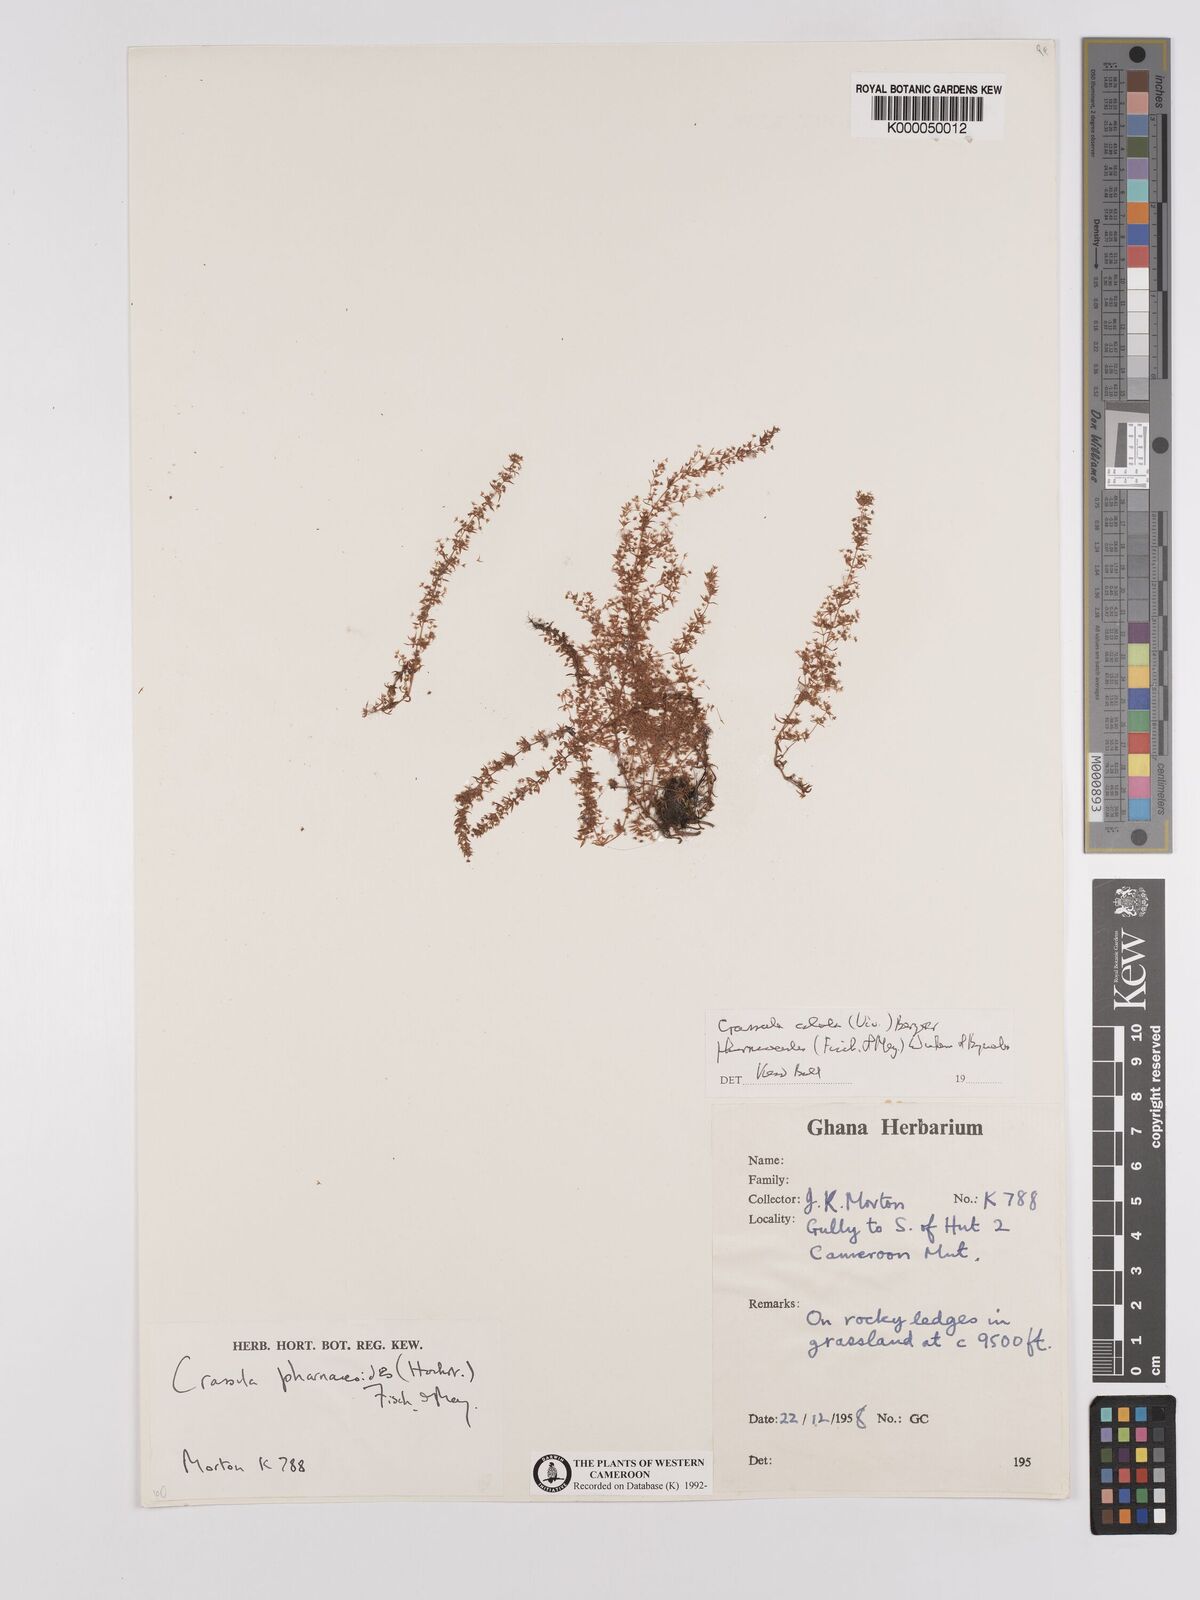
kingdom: Plantae
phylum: Tracheophyta
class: Magnoliopsida
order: Saxifragales
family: Crassulaceae
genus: Crassula
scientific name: Crassula alata
